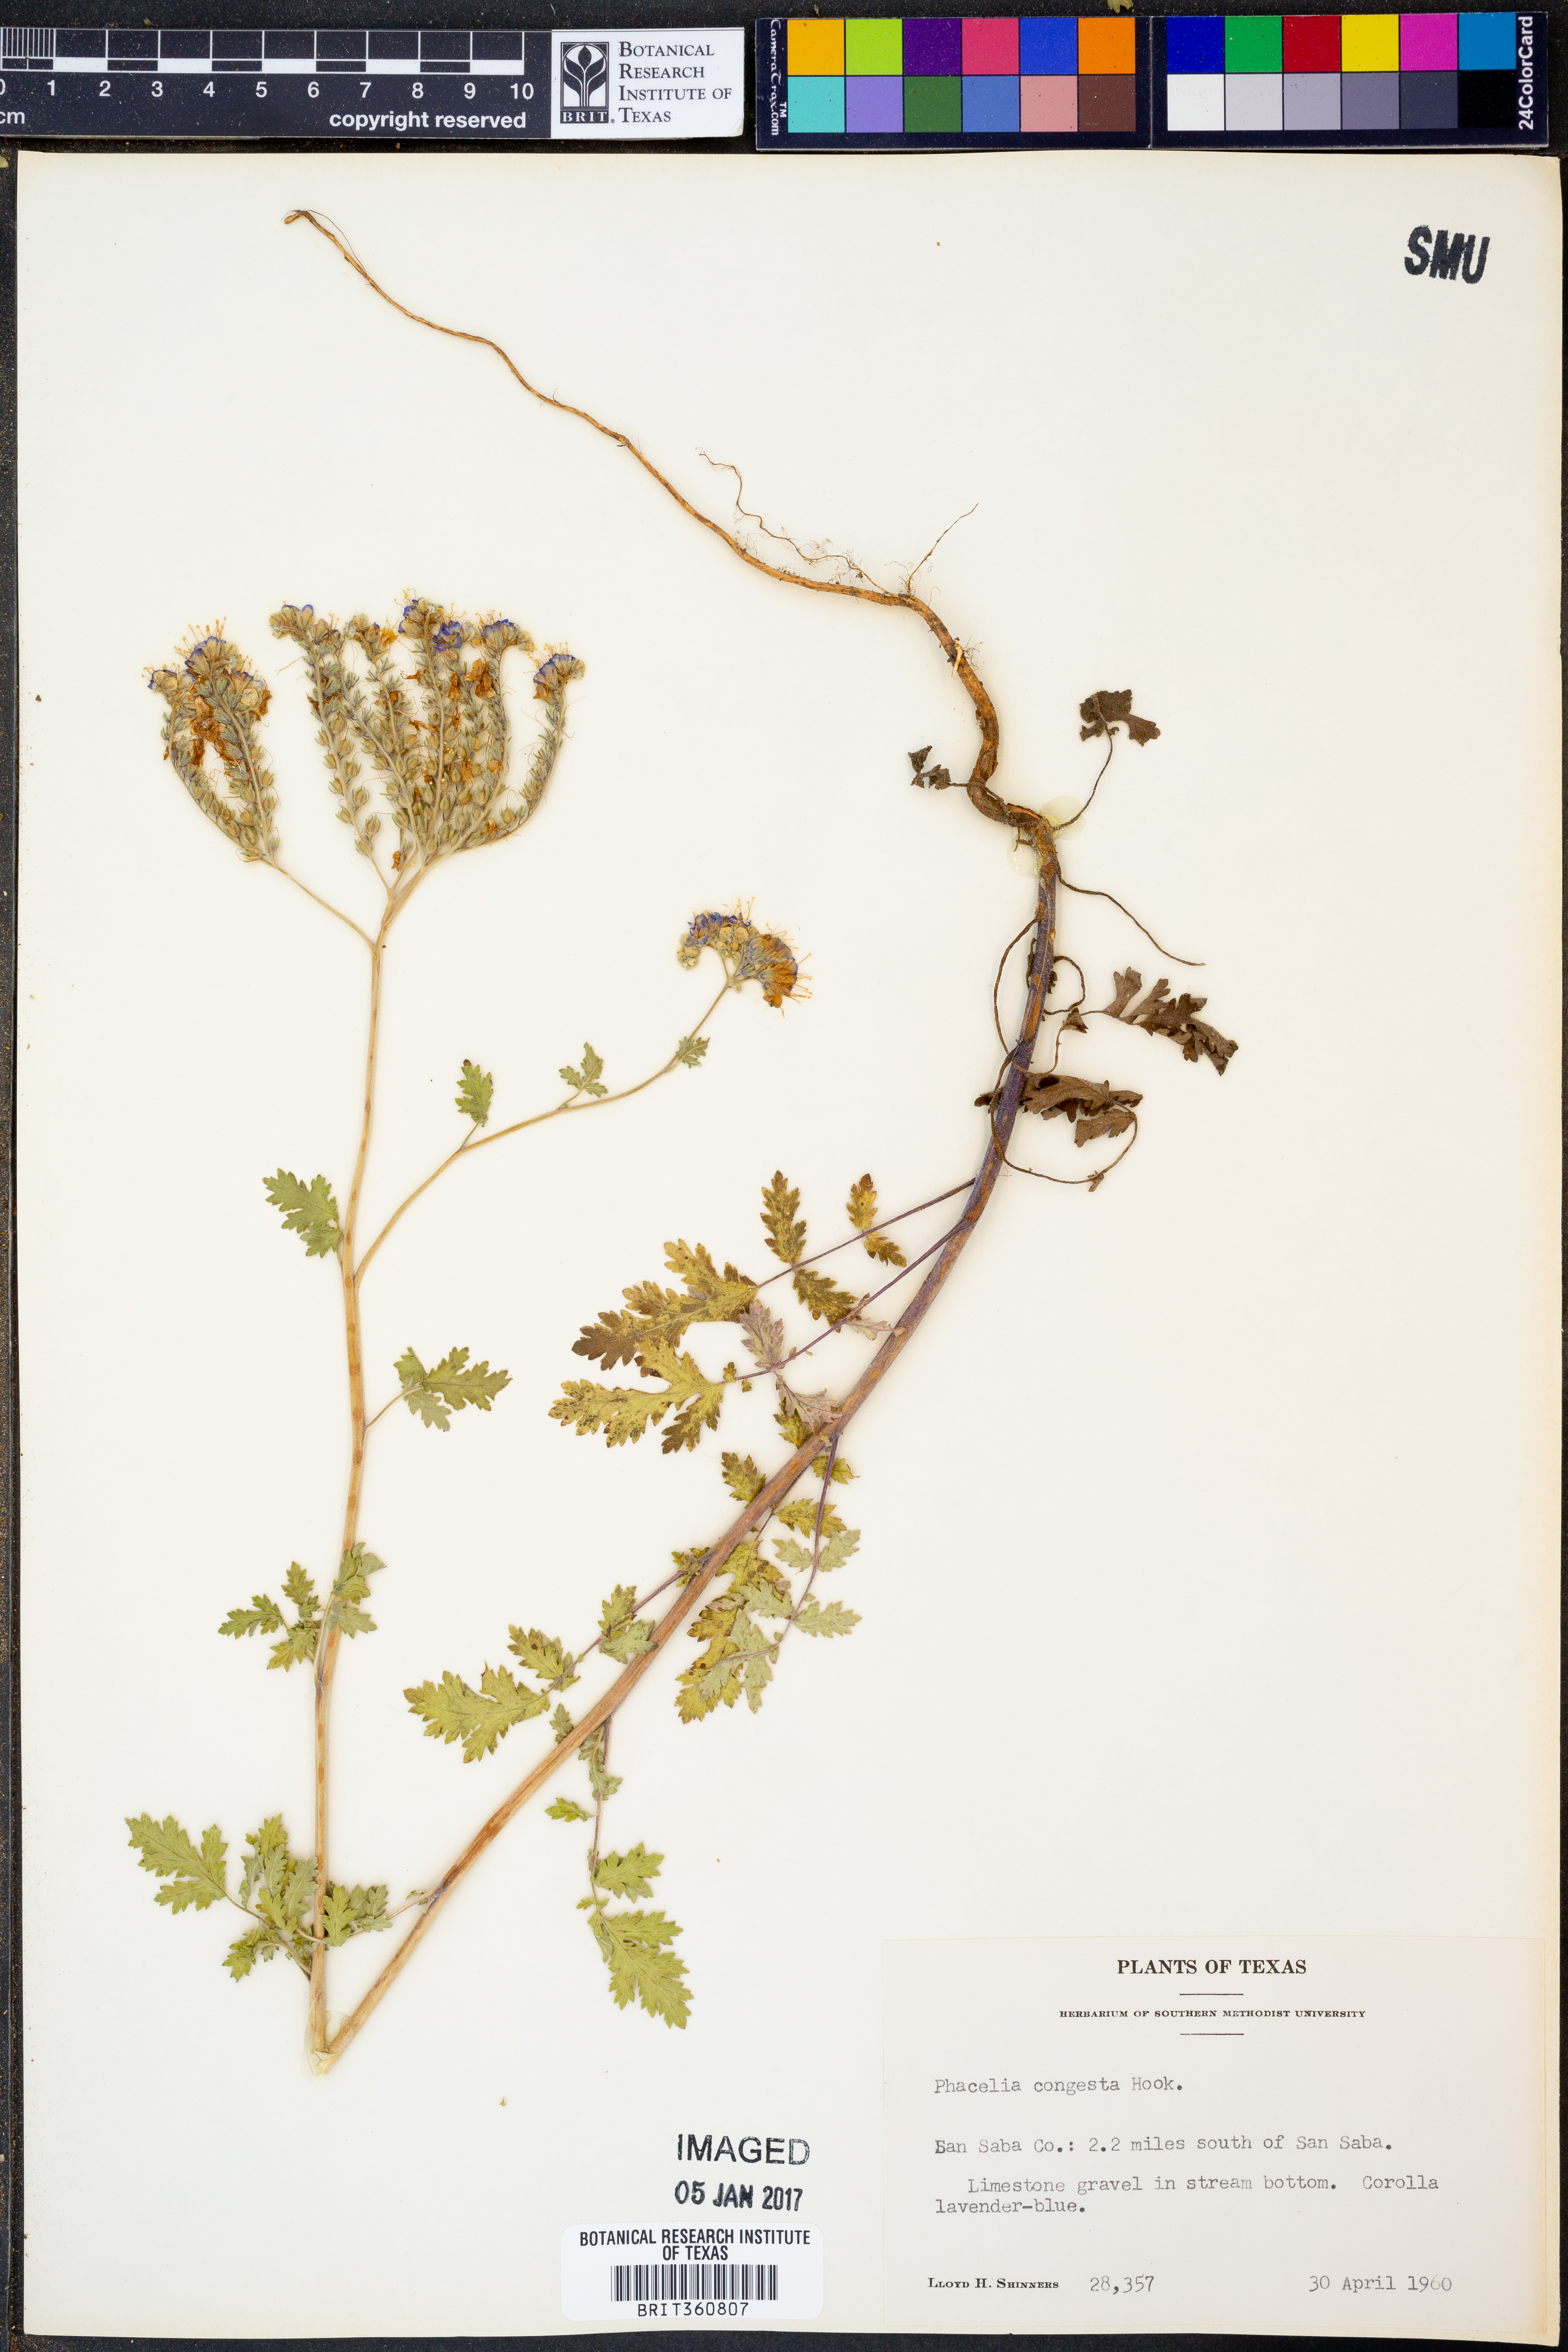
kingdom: Plantae
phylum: Tracheophyta
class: Magnoliopsida
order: Boraginales
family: Hydrophyllaceae
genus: Phacelia
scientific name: Phacelia congesta
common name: Blue curls
